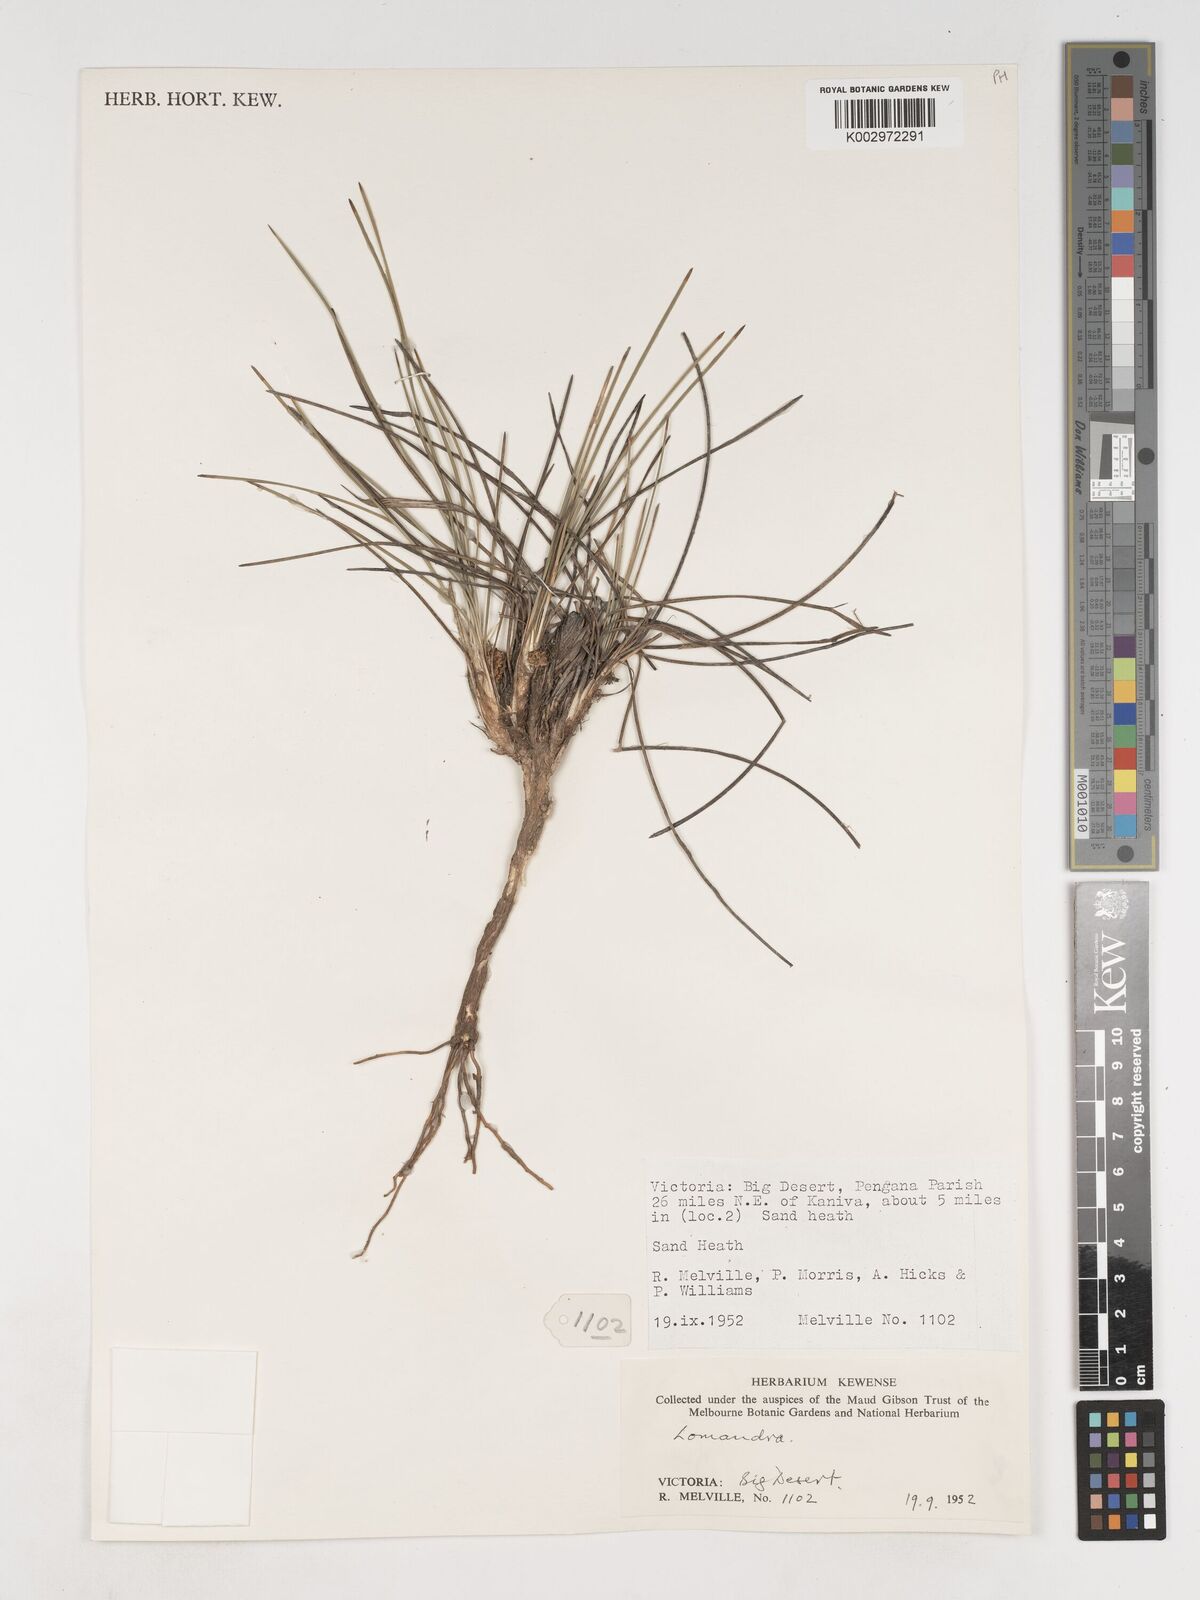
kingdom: Plantae
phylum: Tracheophyta
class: Liliopsida
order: Asparagales
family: Asparagaceae
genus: Lomandra
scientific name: Lomandra
